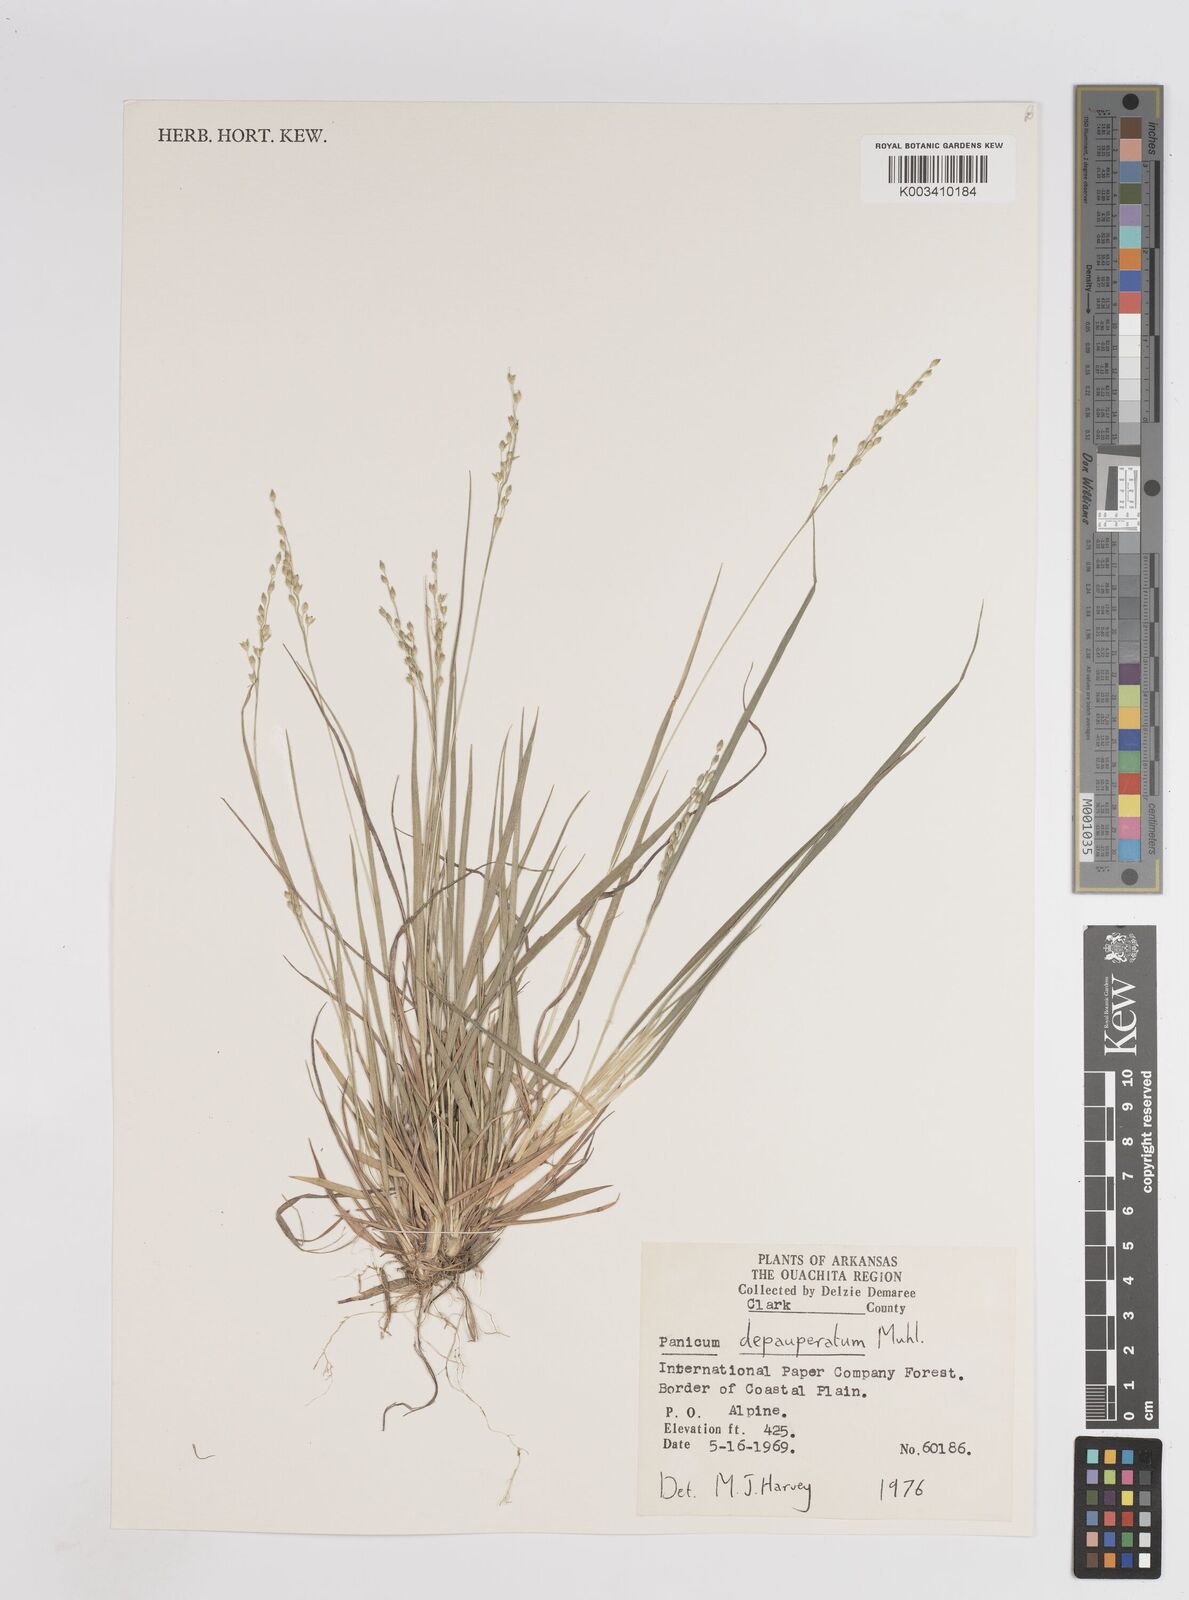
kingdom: Plantae
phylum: Tracheophyta
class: Liliopsida
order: Poales
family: Poaceae
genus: Dichanthelium
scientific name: Dichanthelium depauperatum
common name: Depauperate panicgrass
